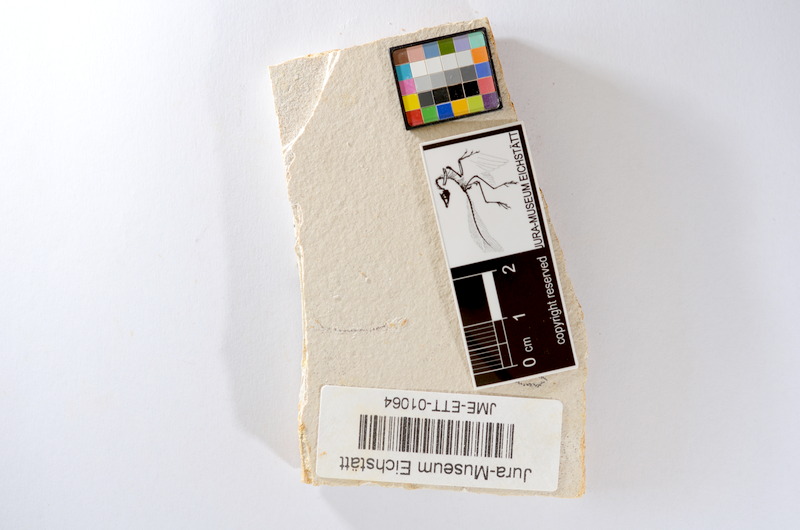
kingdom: Animalia
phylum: Chordata
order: Salmoniformes
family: Orthogonikleithridae
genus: Orthogonikleithrus
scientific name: Orthogonikleithrus hoelli
